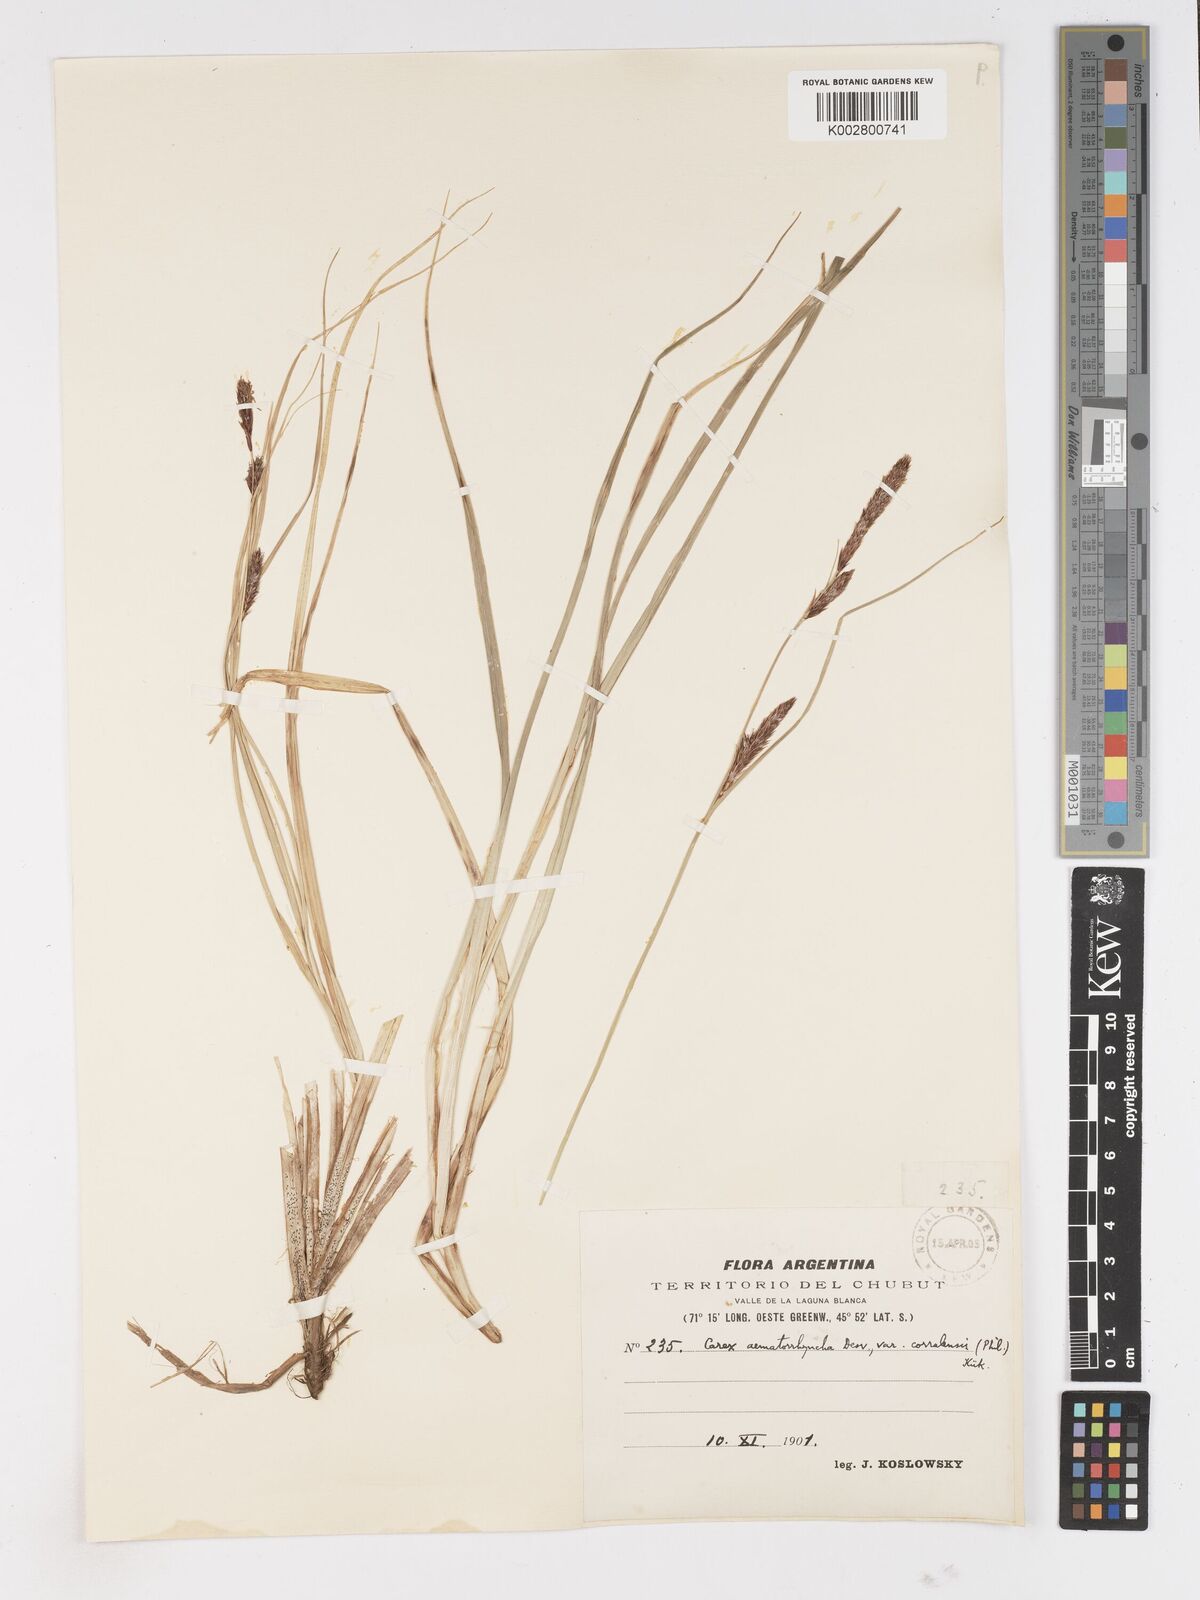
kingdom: Plantae
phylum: Tracheophyta
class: Liliopsida
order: Poales
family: Cyperaceae
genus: Carex
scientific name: Carex aematorhyncha
